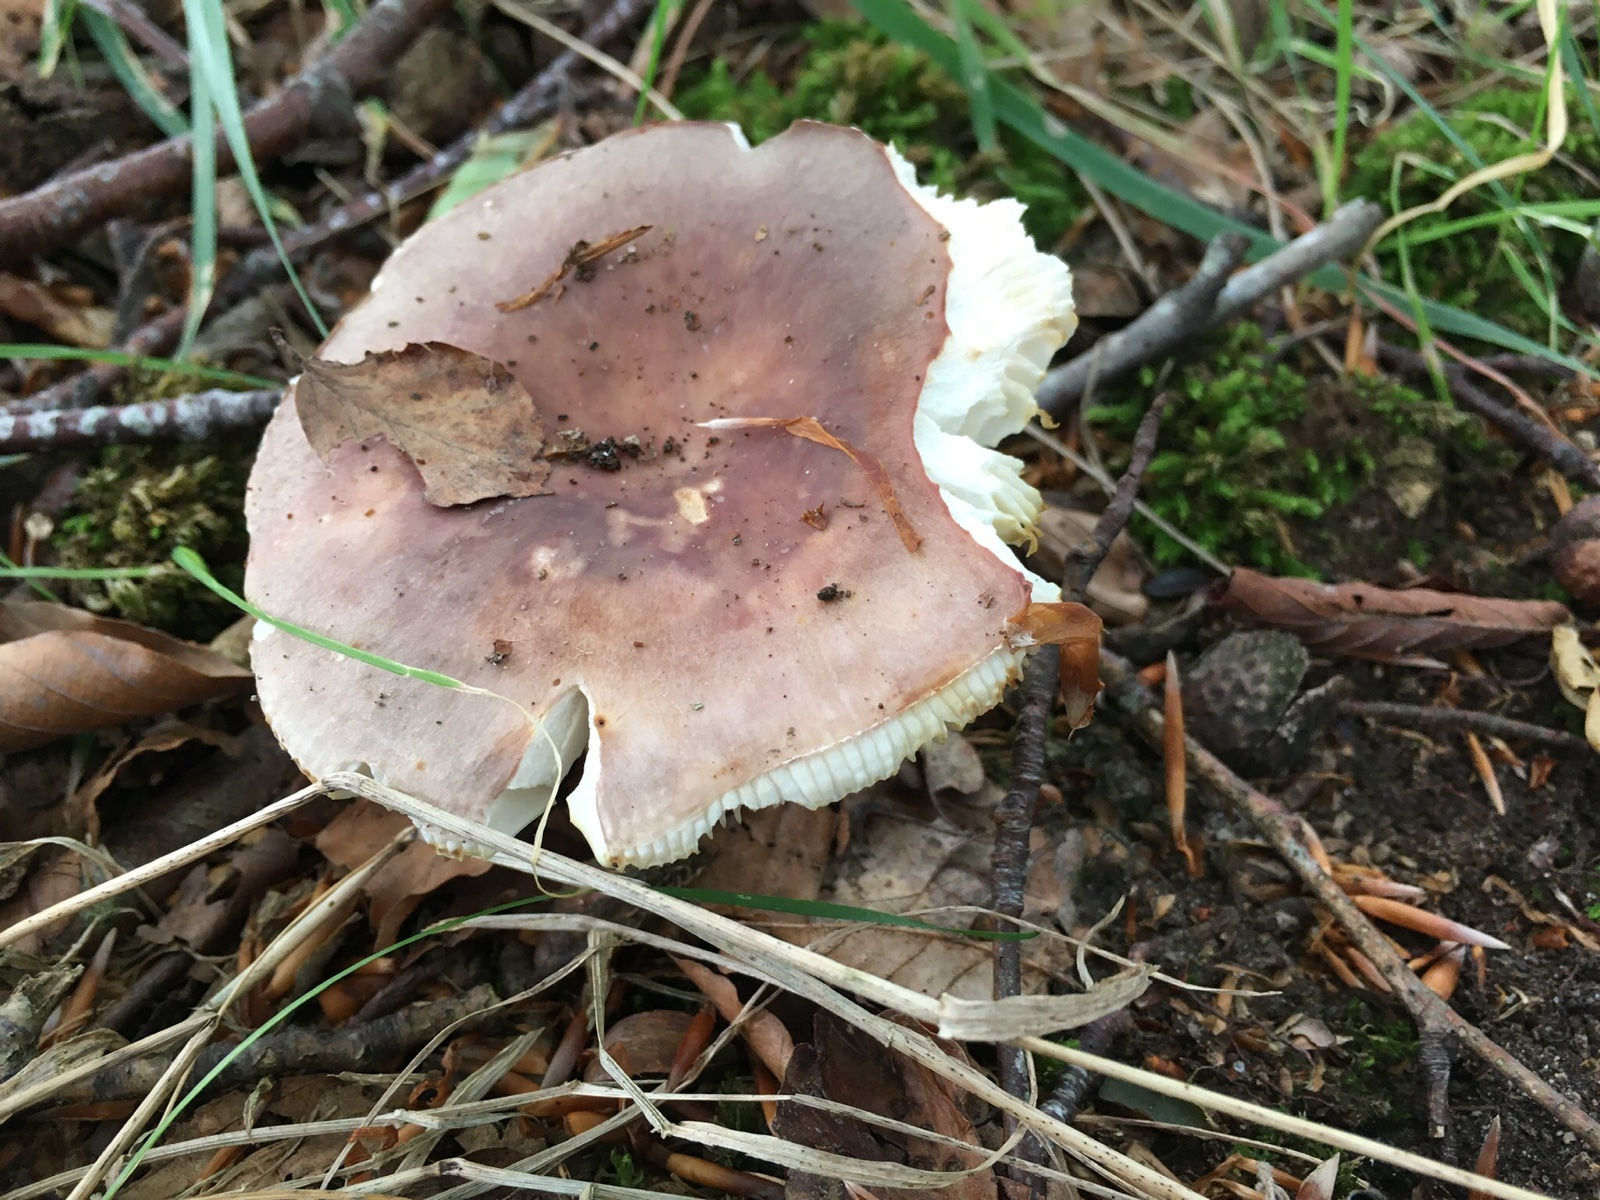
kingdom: Fungi
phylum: Basidiomycota
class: Agaricomycetes
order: Russulales
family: Russulaceae
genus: Russula
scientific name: Russula vesca
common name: spiselig skørhat
